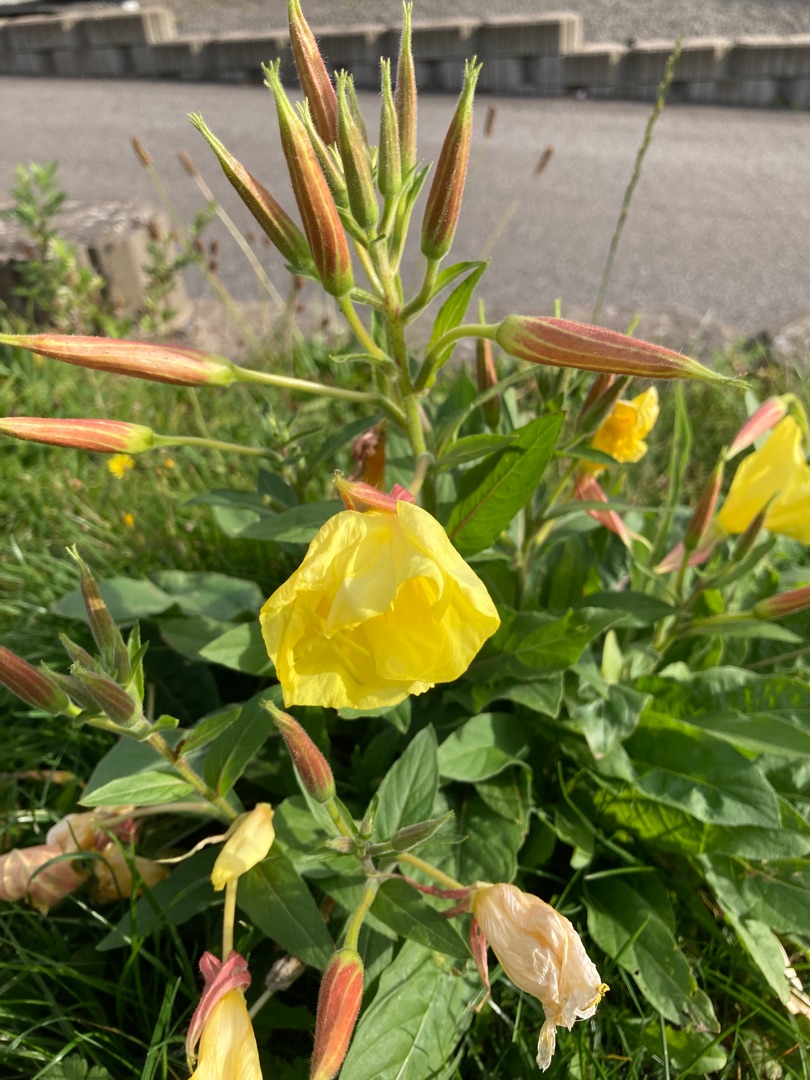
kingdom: Plantae
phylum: Tracheophyta
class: Magnoliopsida
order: Myrtales
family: Onagraceae
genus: Oenothera
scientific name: Oenothera glazioviana
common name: Kæmpe-natlys
